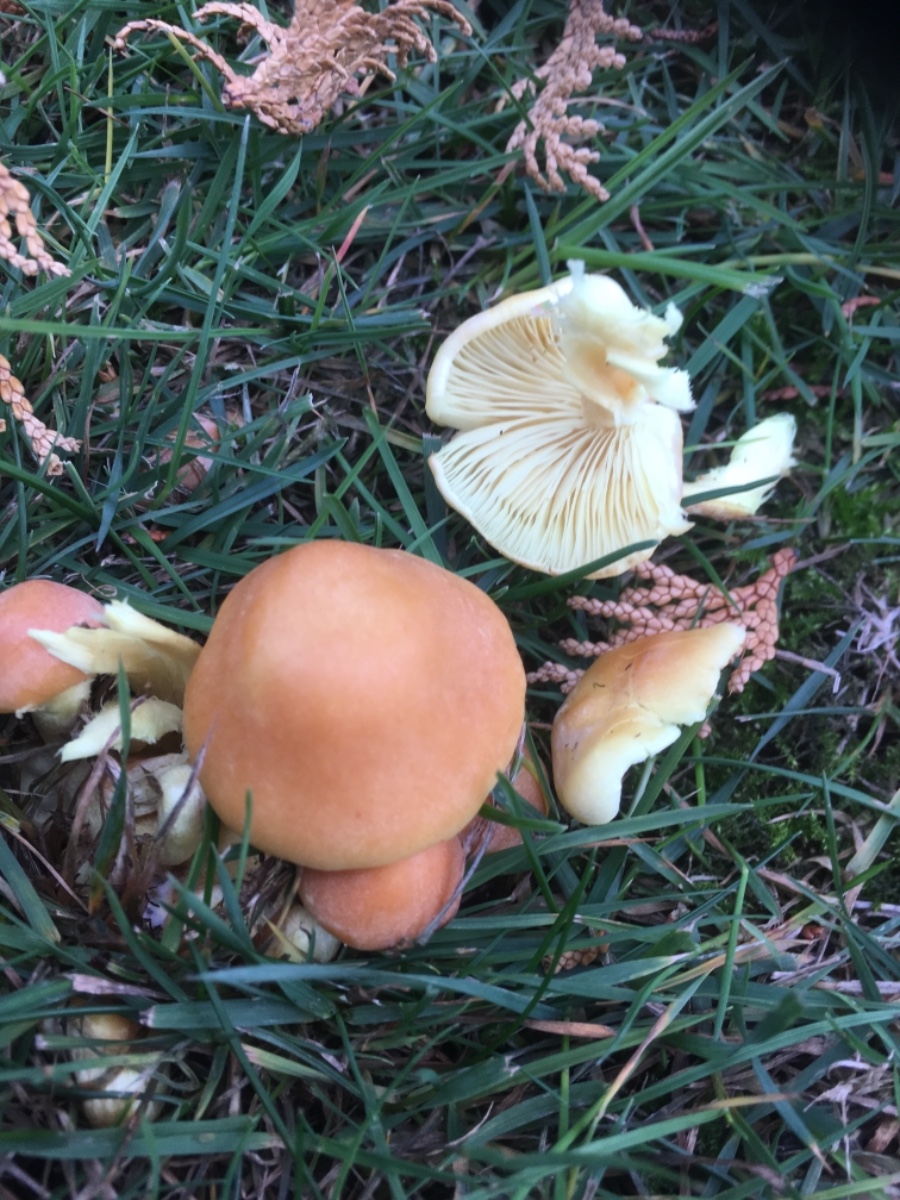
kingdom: Fungi
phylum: Basidiomycota
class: Agaricomycetes
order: Agaricales
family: Strophariaceae
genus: Hypholoma
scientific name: Hypholoma
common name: svovlhat
